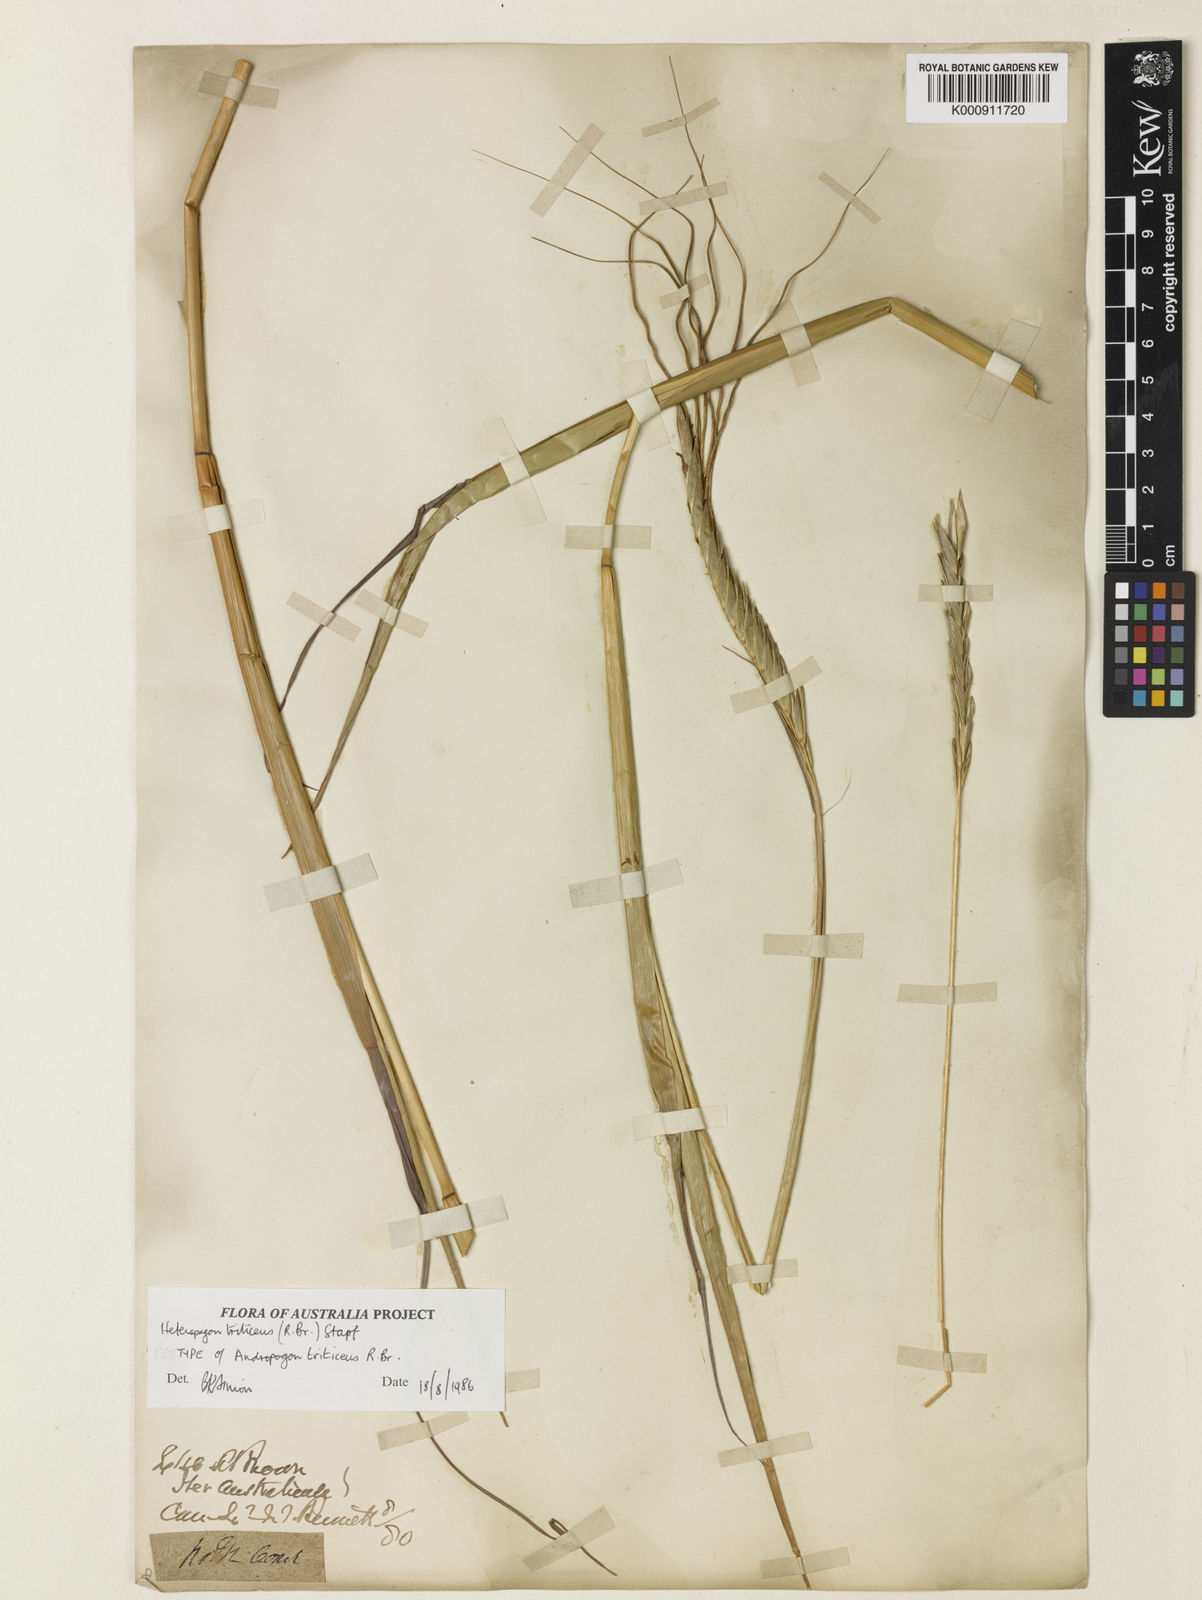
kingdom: Plantae
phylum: Tracheophyta
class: Liliopsida
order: Poales
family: Poaceae
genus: Heteropogon
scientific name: Heteropogon triticeus
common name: Sugar grass
